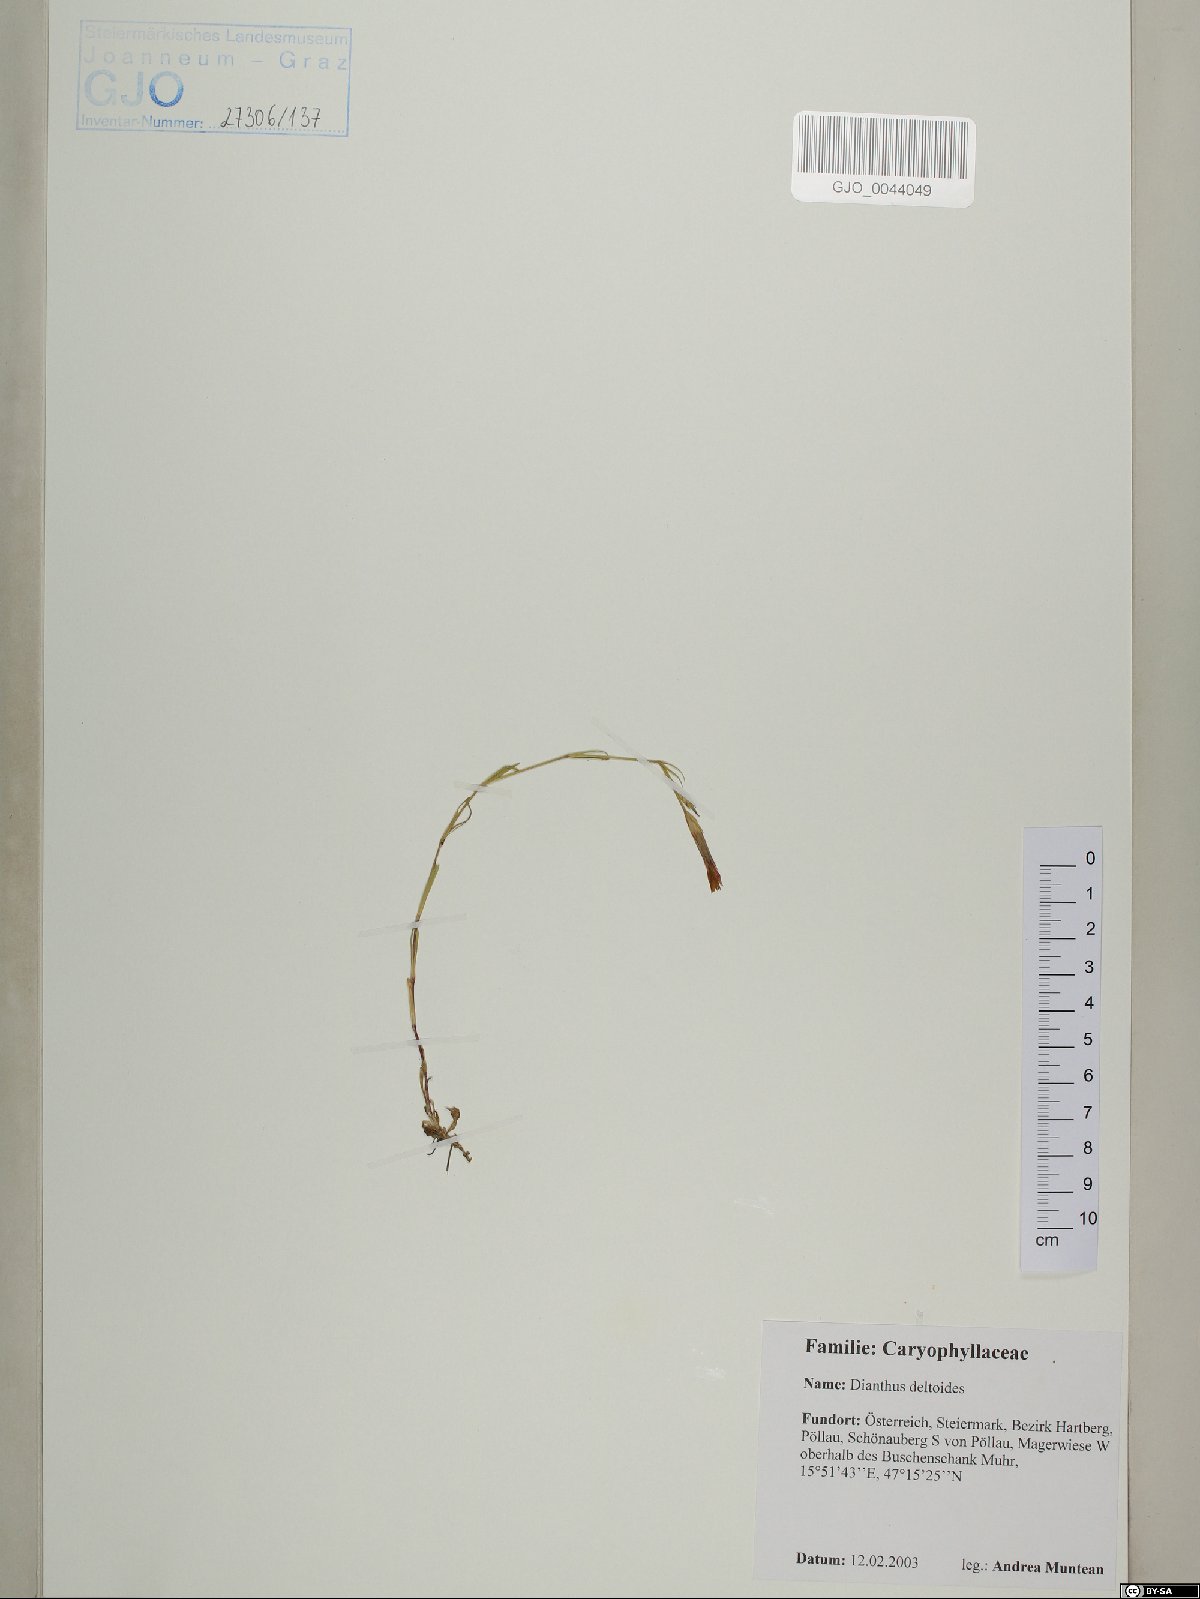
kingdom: Plantae
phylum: Tracheophyta
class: Magnoliopsida
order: Caryophyllales
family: Caryophyllaceae
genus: Dianthus
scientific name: Dianthus deltoides
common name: Maiden pink
